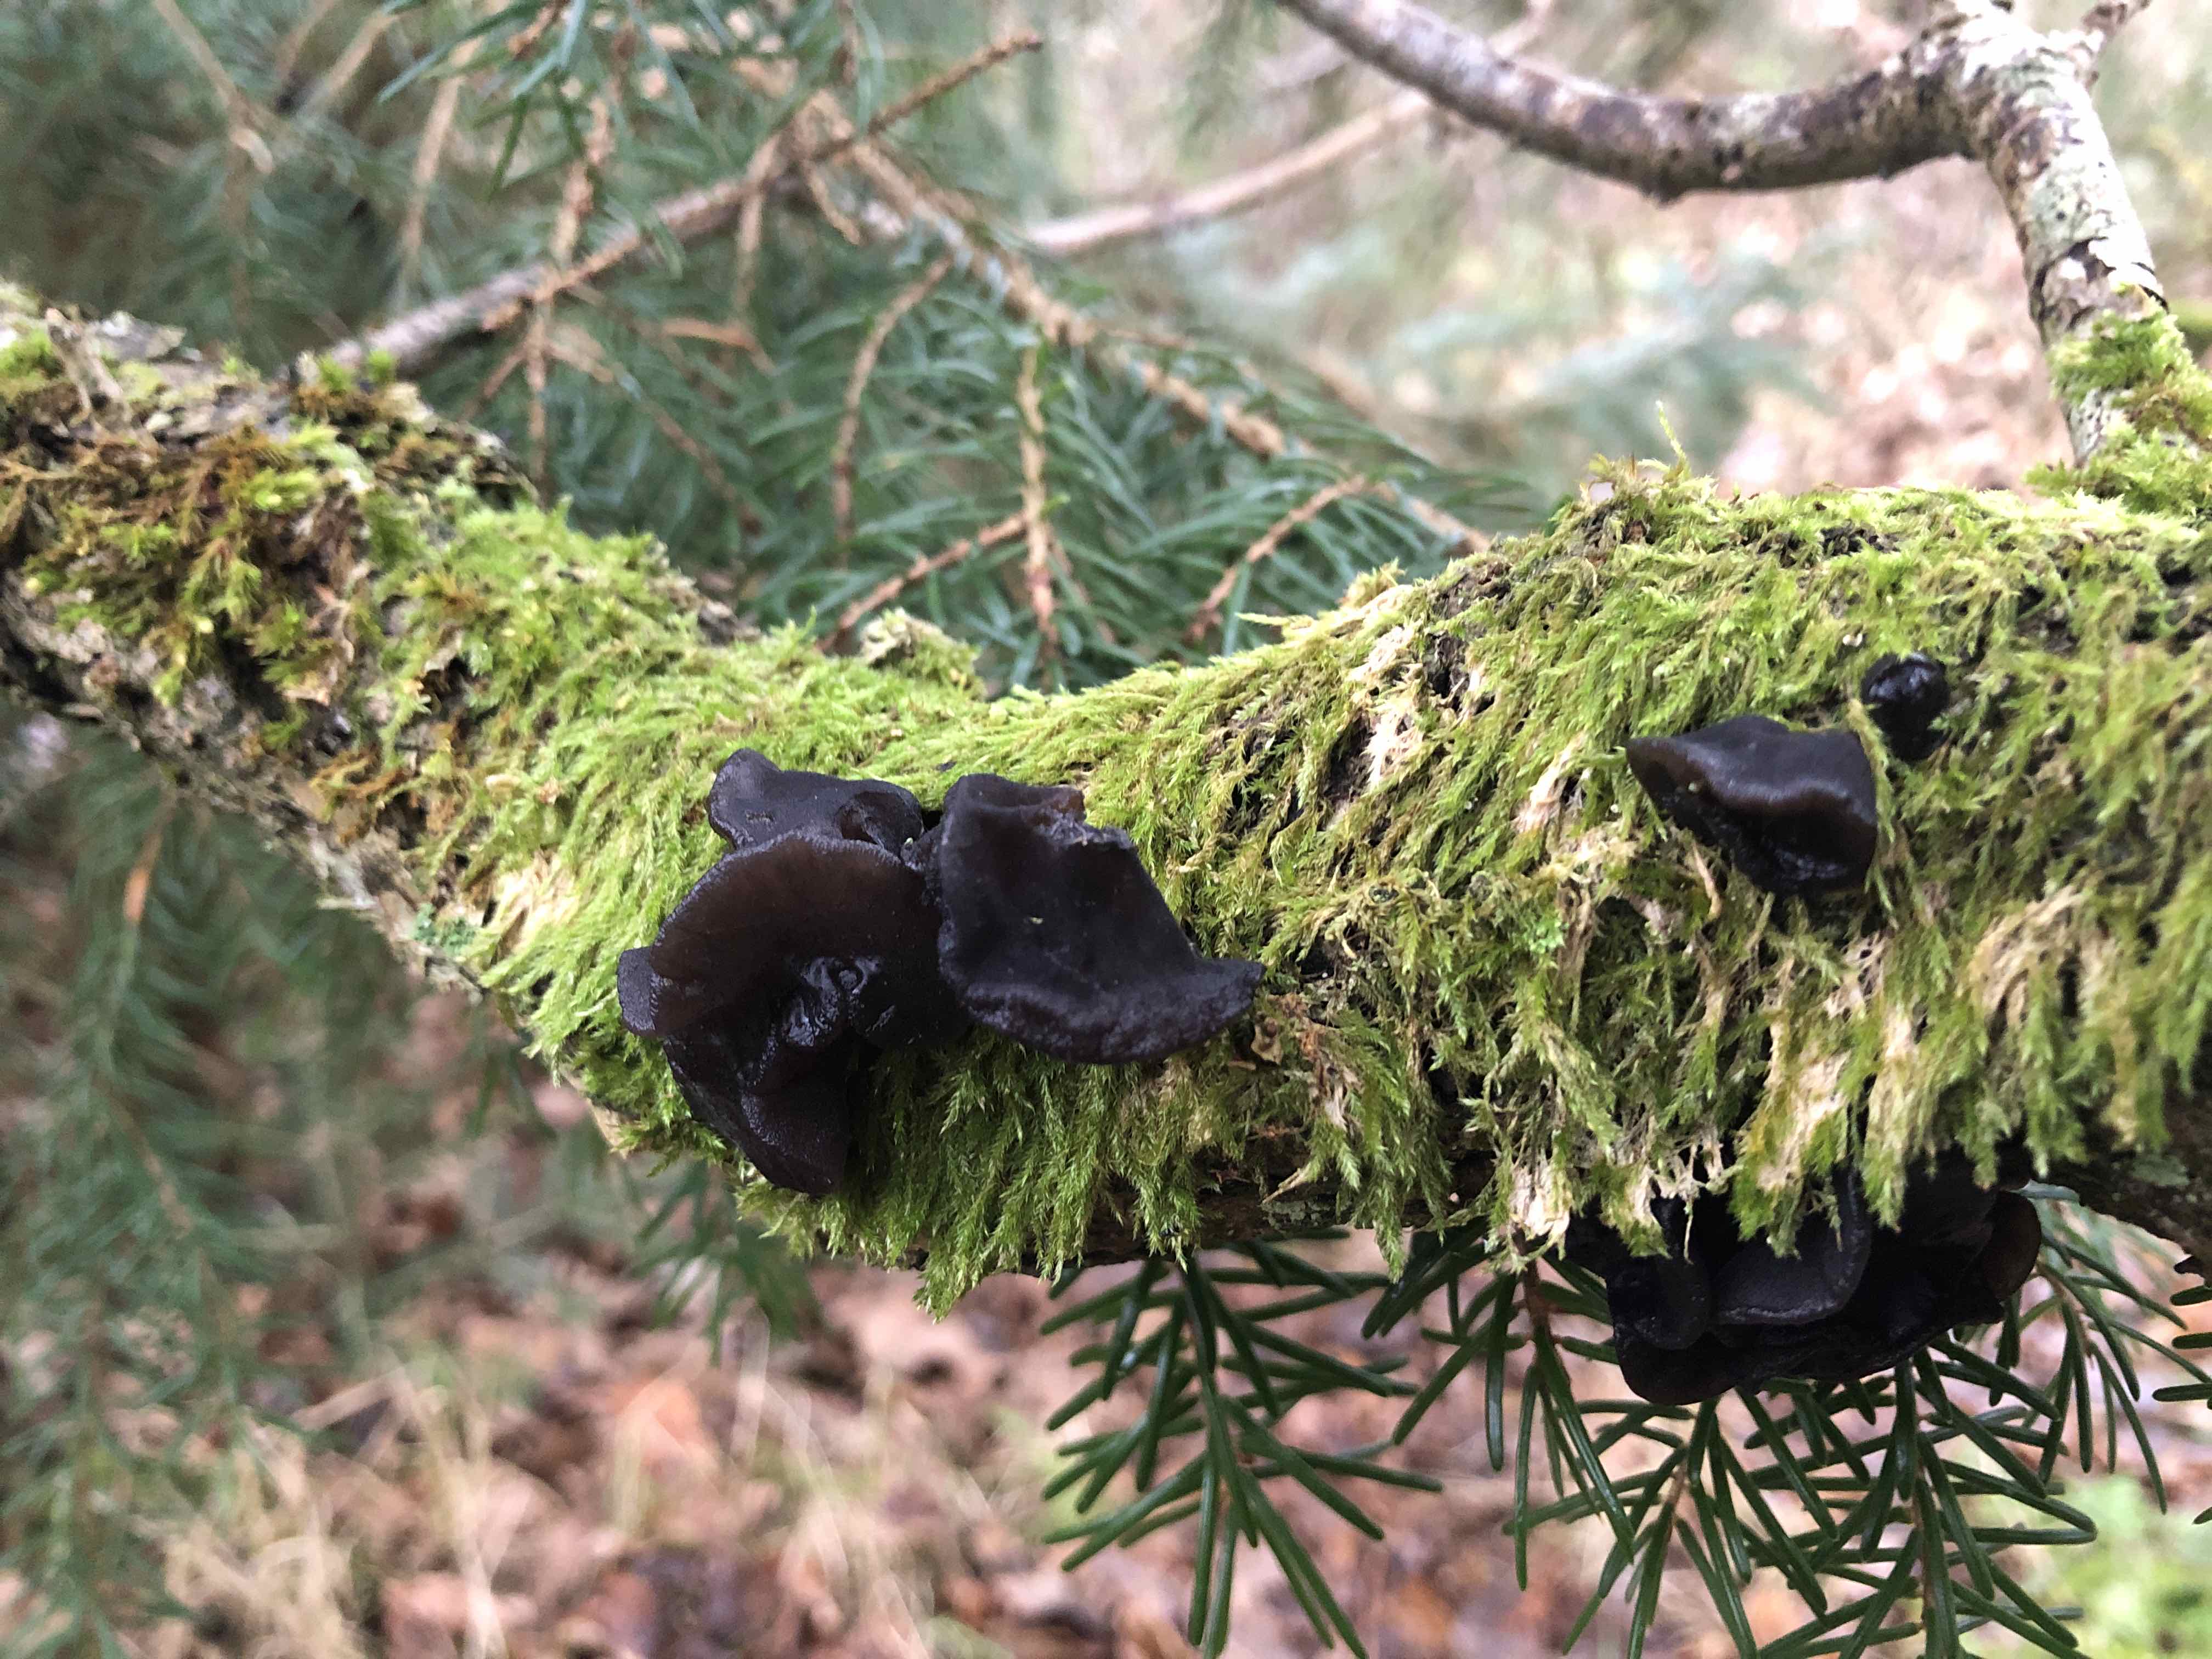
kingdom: Fungi
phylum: Basidiomycota
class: Agaricomycetes
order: Auriculariales
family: Auriculariaceae
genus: Exidia
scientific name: Exidia glandulosa
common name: ege-bævretop
